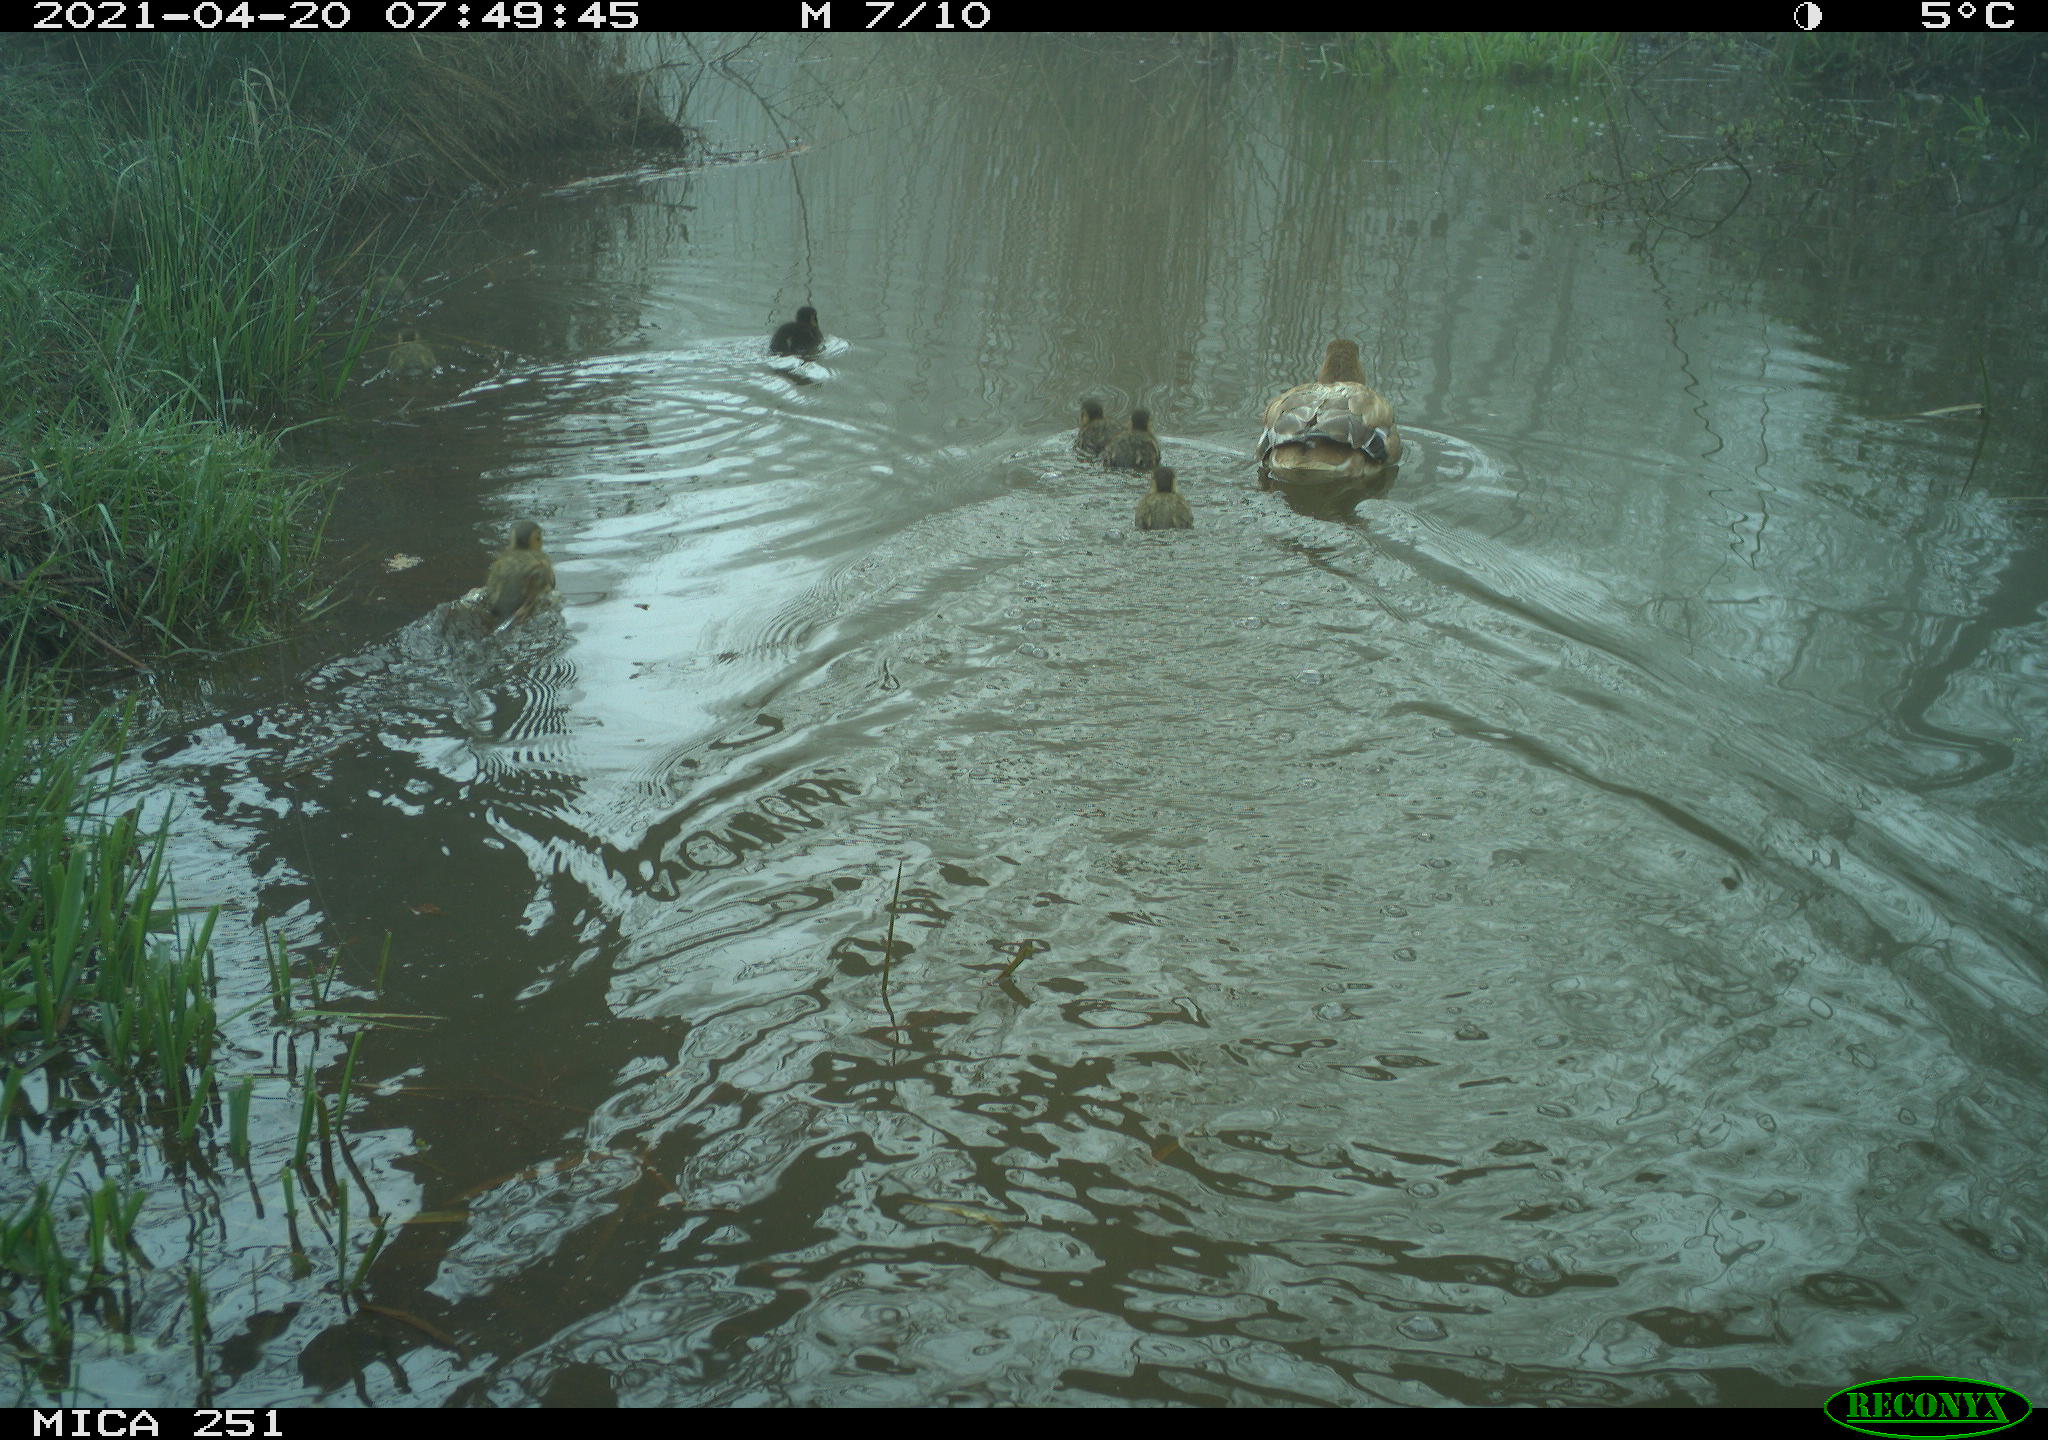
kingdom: Animalia
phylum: Chordata
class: Aves
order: Anseriformes
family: Anatidae
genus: Anas
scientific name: Anas platyrhynchos
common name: Mallard
